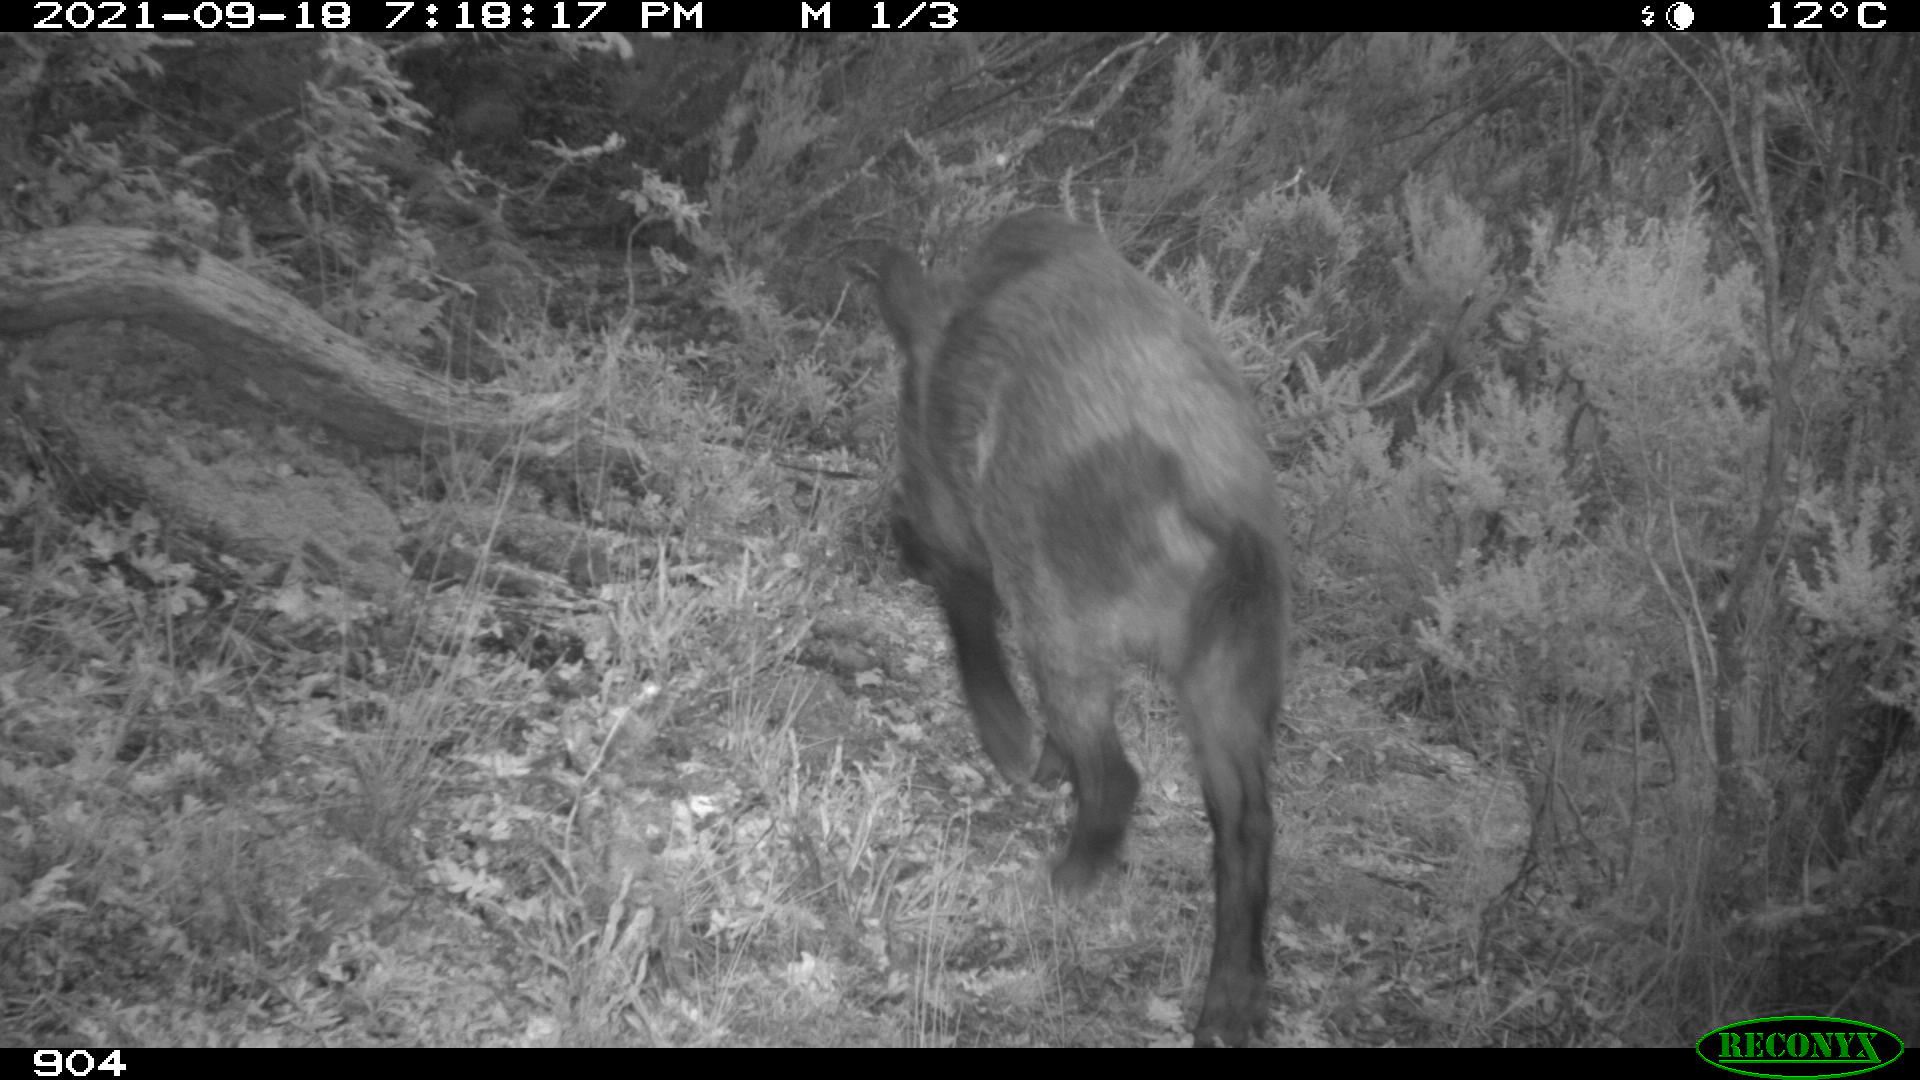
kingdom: Animalia
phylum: Chordata
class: Mammalia
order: Artiodactyla
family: Suidae
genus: Sus
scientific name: Sus scrofa
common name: Wild boar
